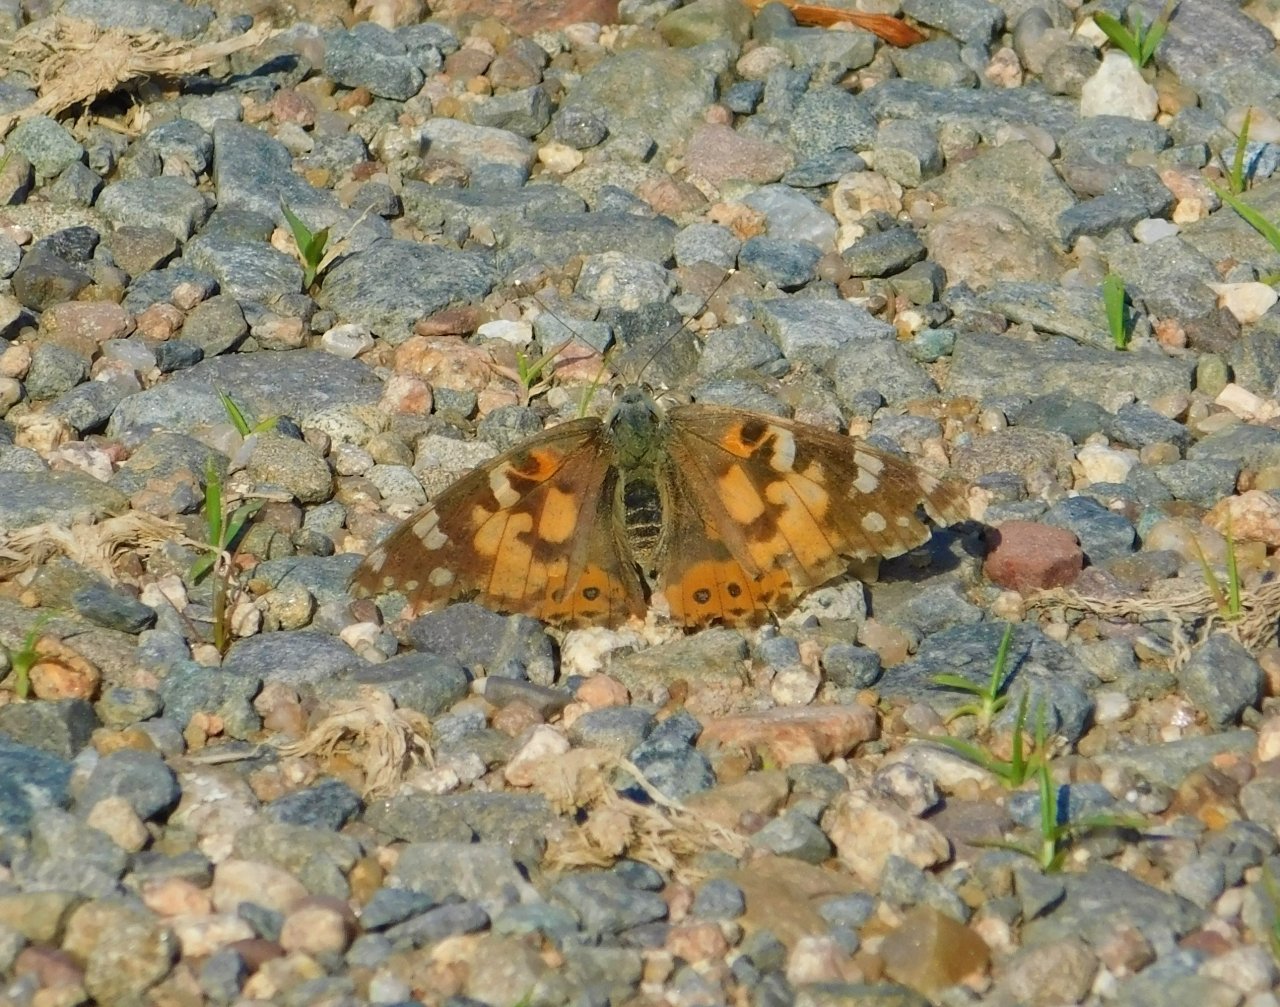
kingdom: Animalia
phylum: Arthropoda
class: Insecta
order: Lepidoptera
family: Nymphalidae
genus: Vanessa
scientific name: Vanessa cardui
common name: Painted Lady
